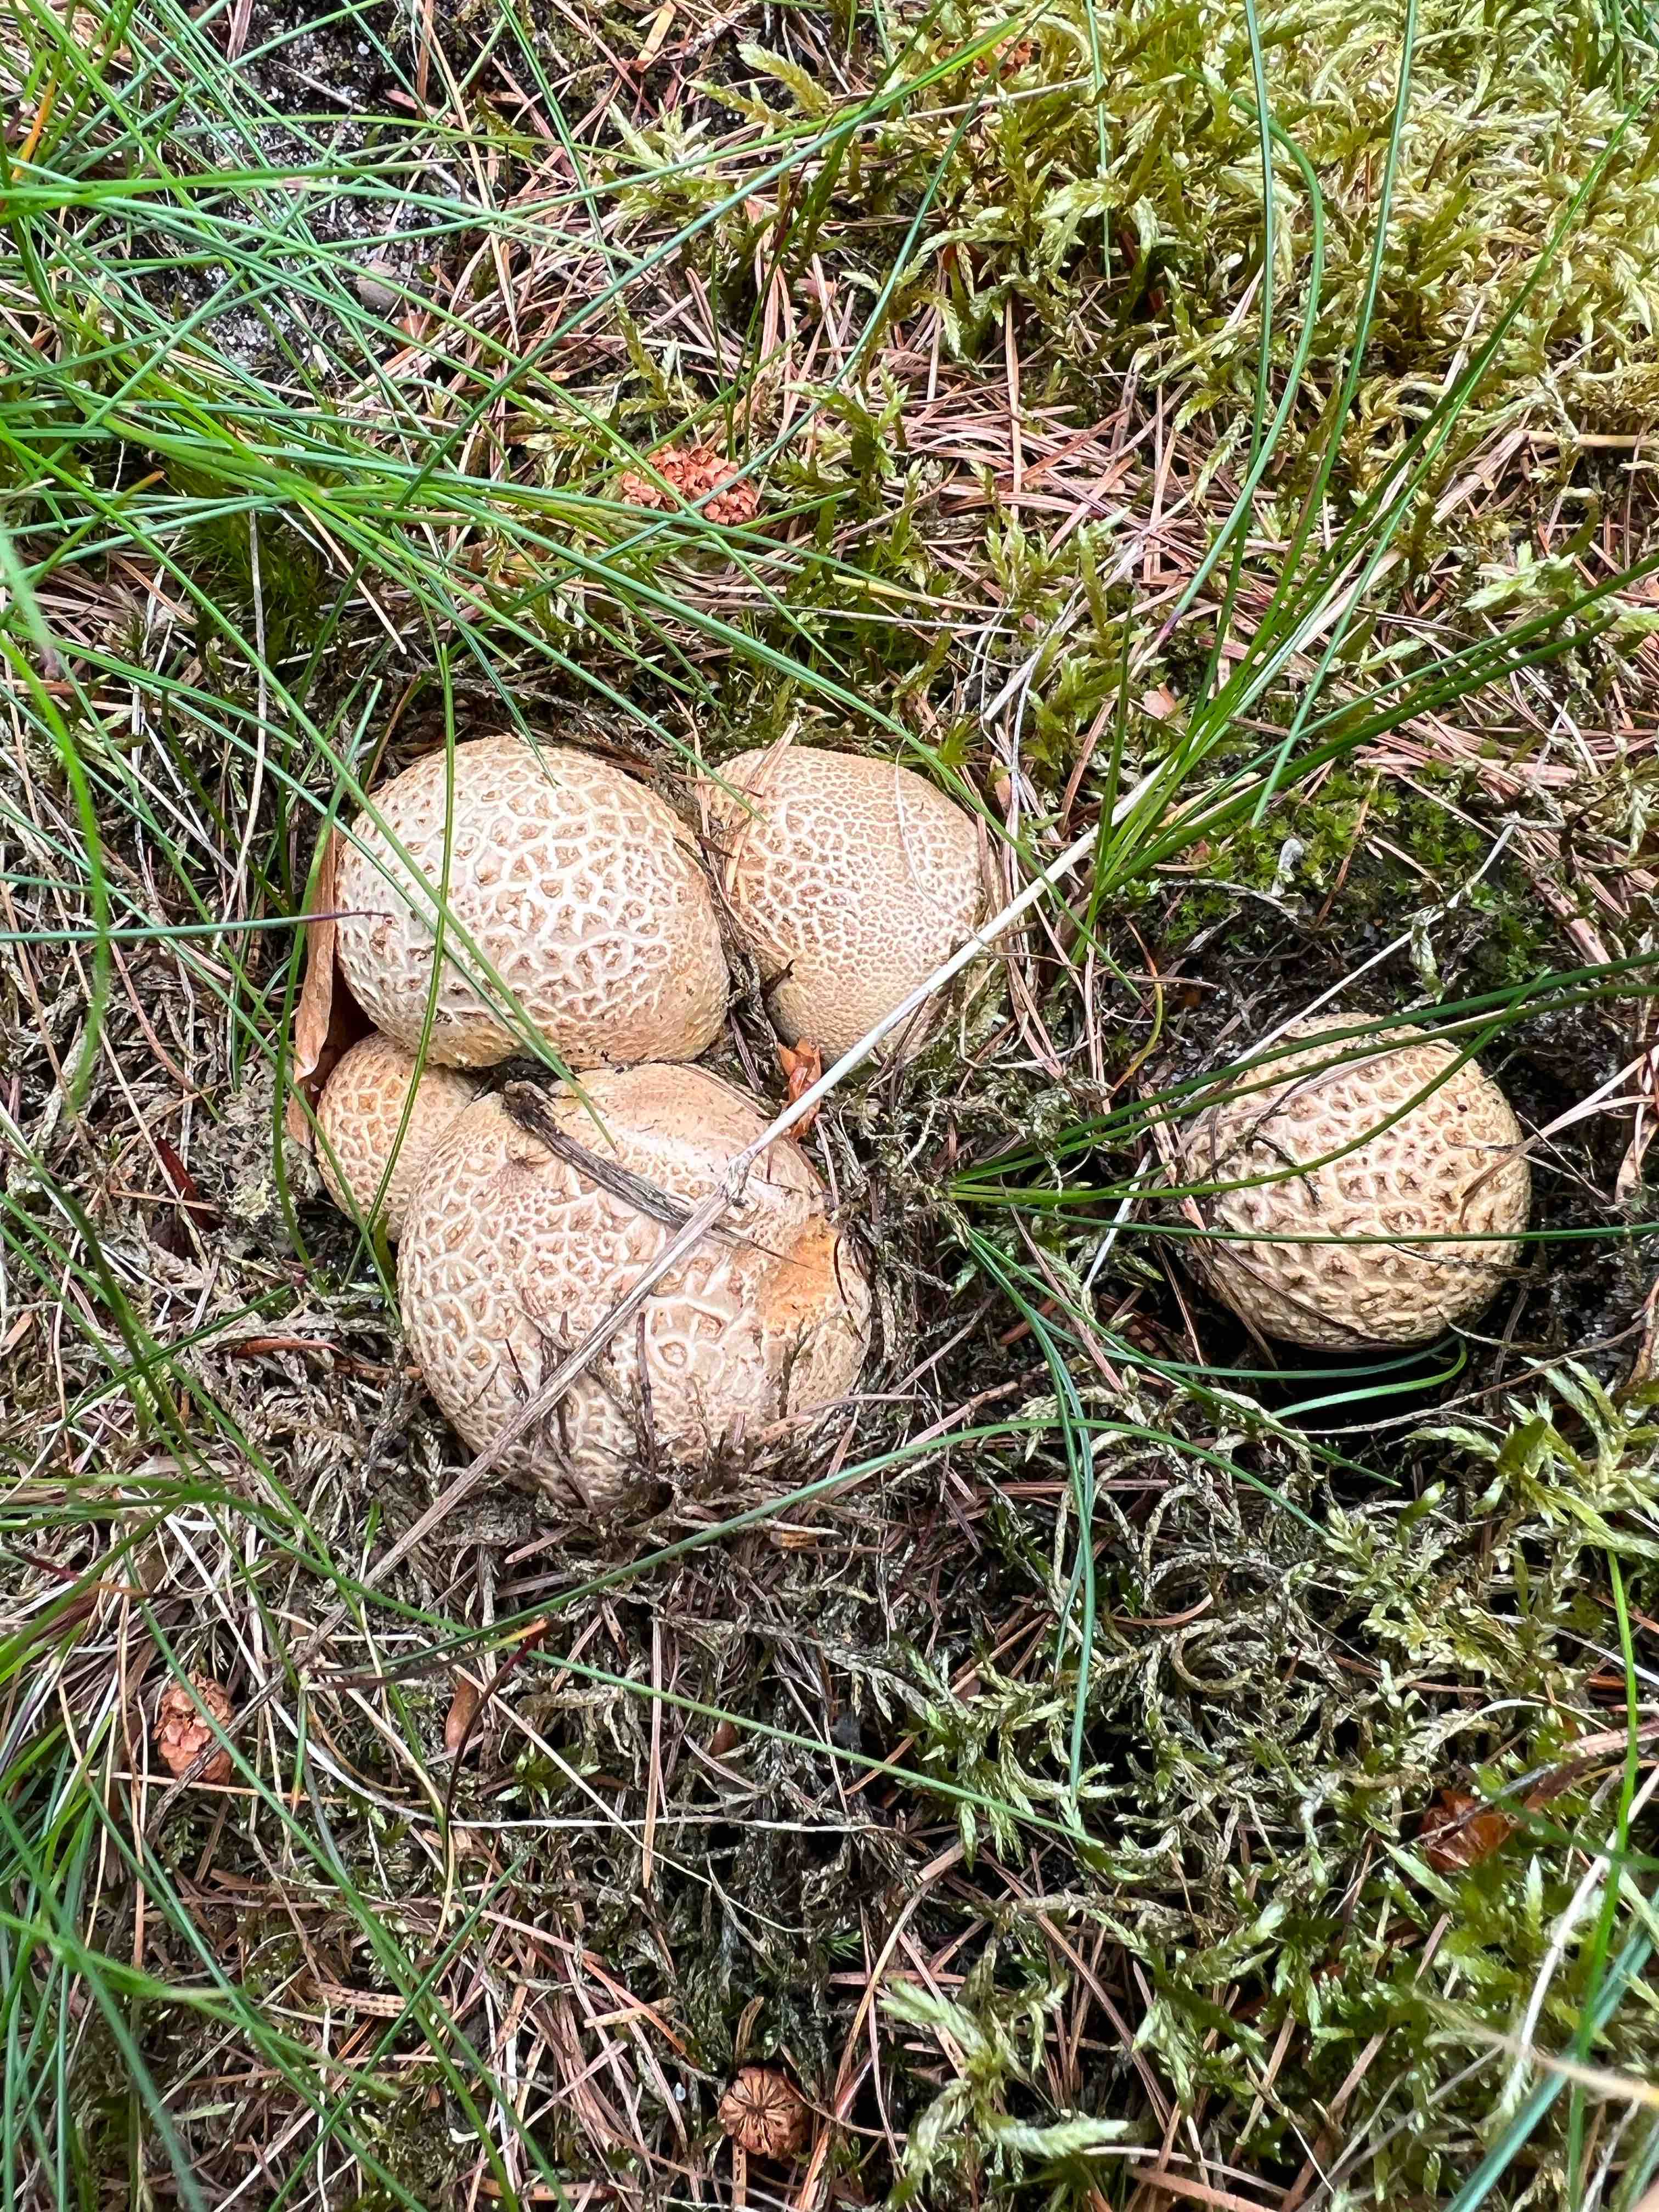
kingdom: Fungi
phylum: Basidiomycota
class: Agaricomycetes
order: Boletales
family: Sclerodermataceae
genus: Scleroderma
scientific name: Scleroderma citrinum
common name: almindelig bruskbold
